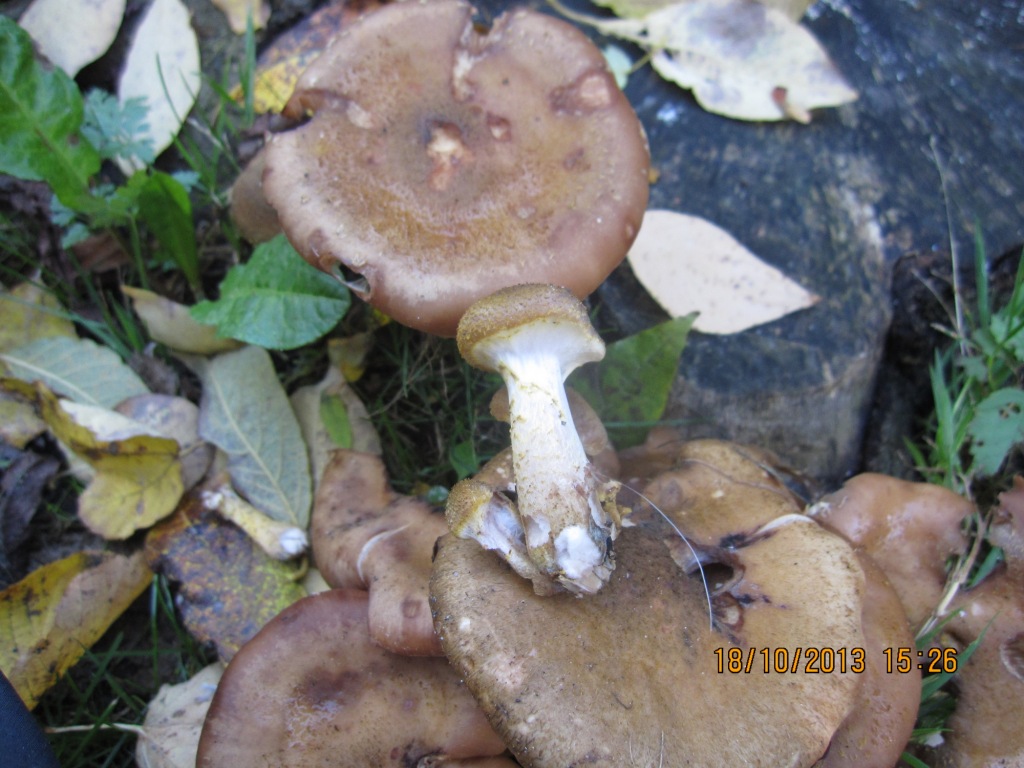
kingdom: Fungi
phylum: Basidiomycota
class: Agaricomycetes
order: Agaricales
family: Physalacriaceae
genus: Armillaria
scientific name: Armillaria lutea
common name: køllestokket honningsvamp
